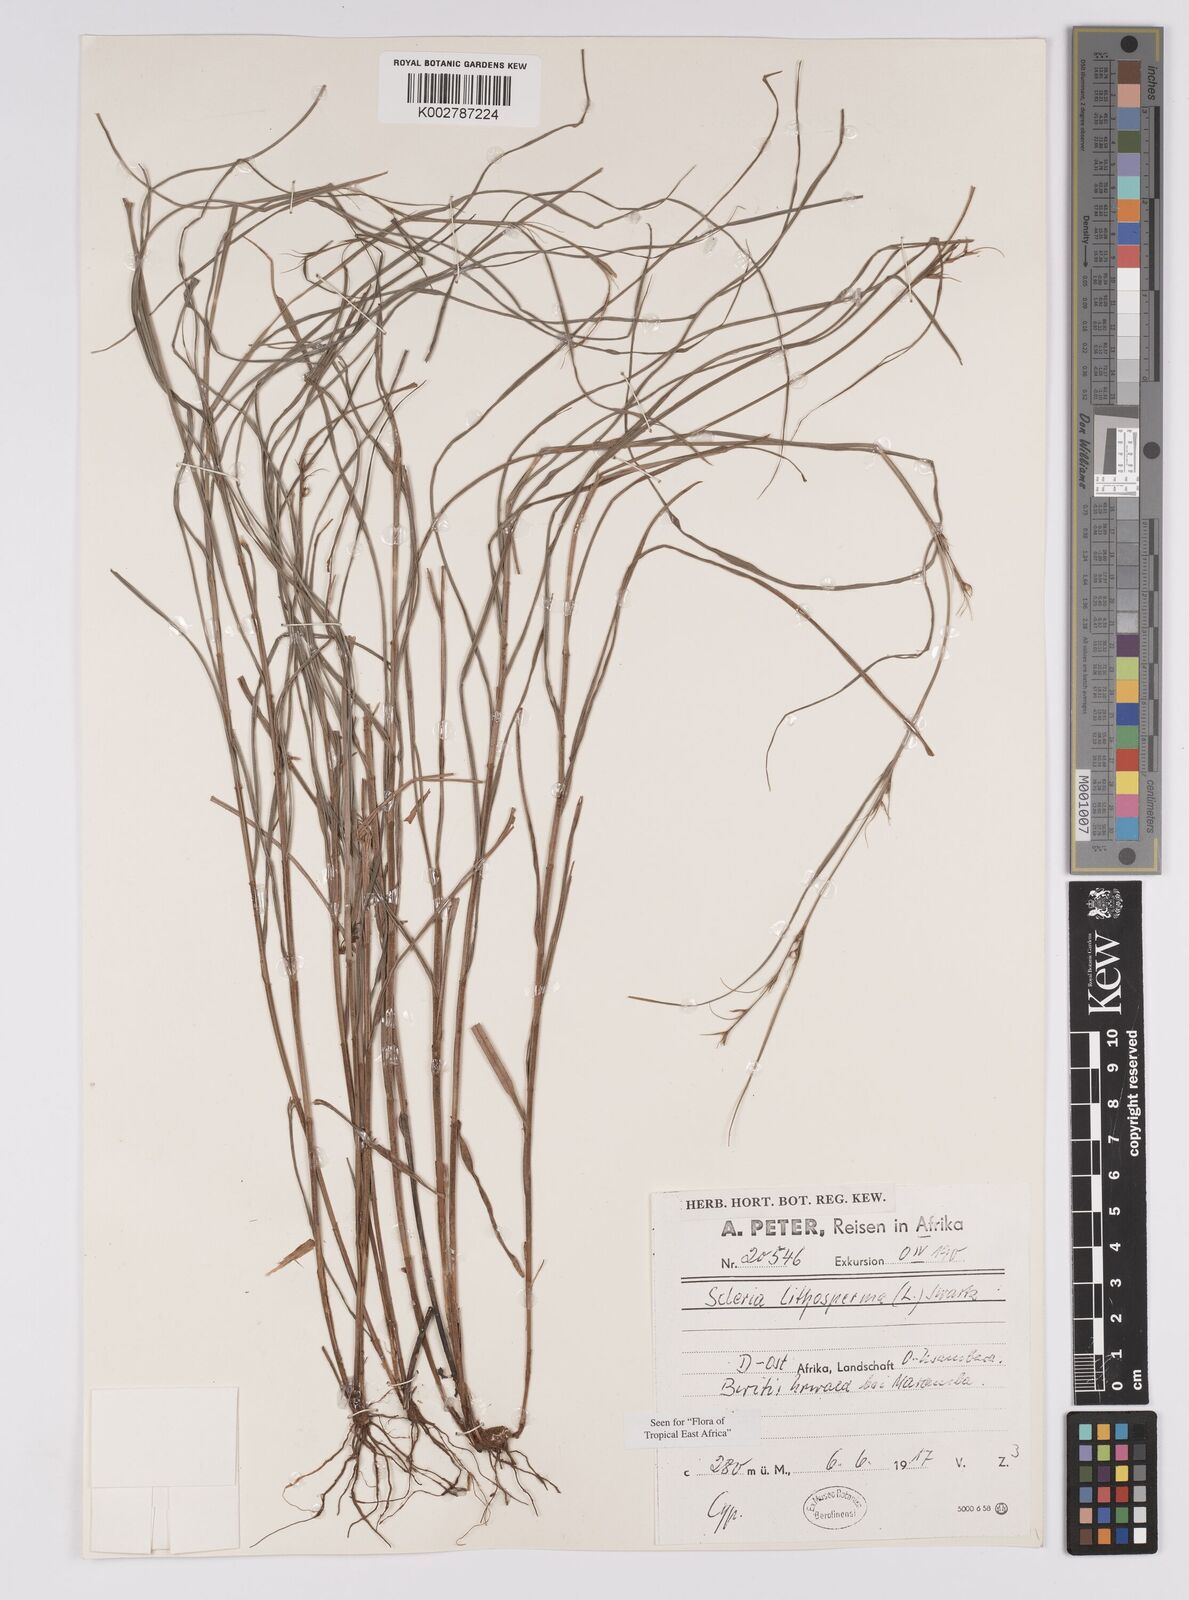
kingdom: Plantae
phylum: Tracheophyta
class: Liliopsida
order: Poales
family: Cyperaceae
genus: Scleria
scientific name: Scleria lithosperma
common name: Florida keys nut-rush
